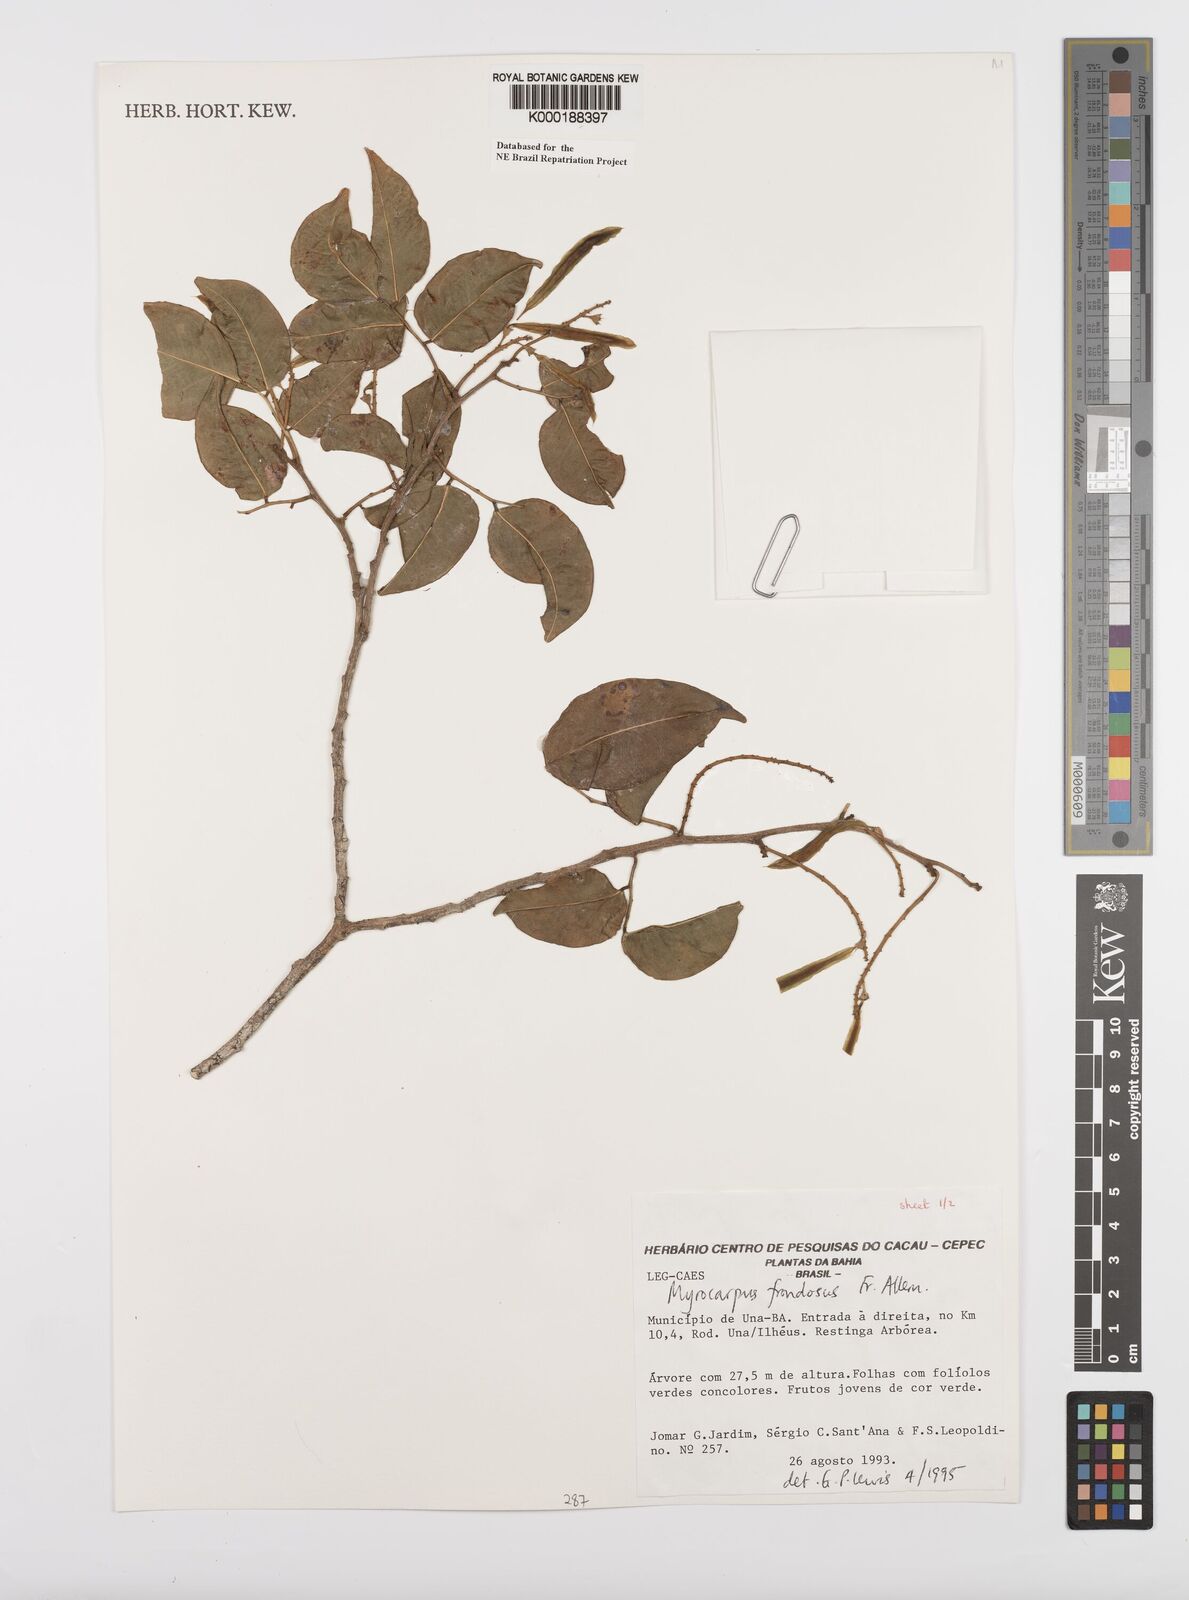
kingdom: Plantae
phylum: Tracheophyta
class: Magnoliopsida
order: Fabales
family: Fabaceae
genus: Myrocarpus
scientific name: Myrocarpus frondosus
